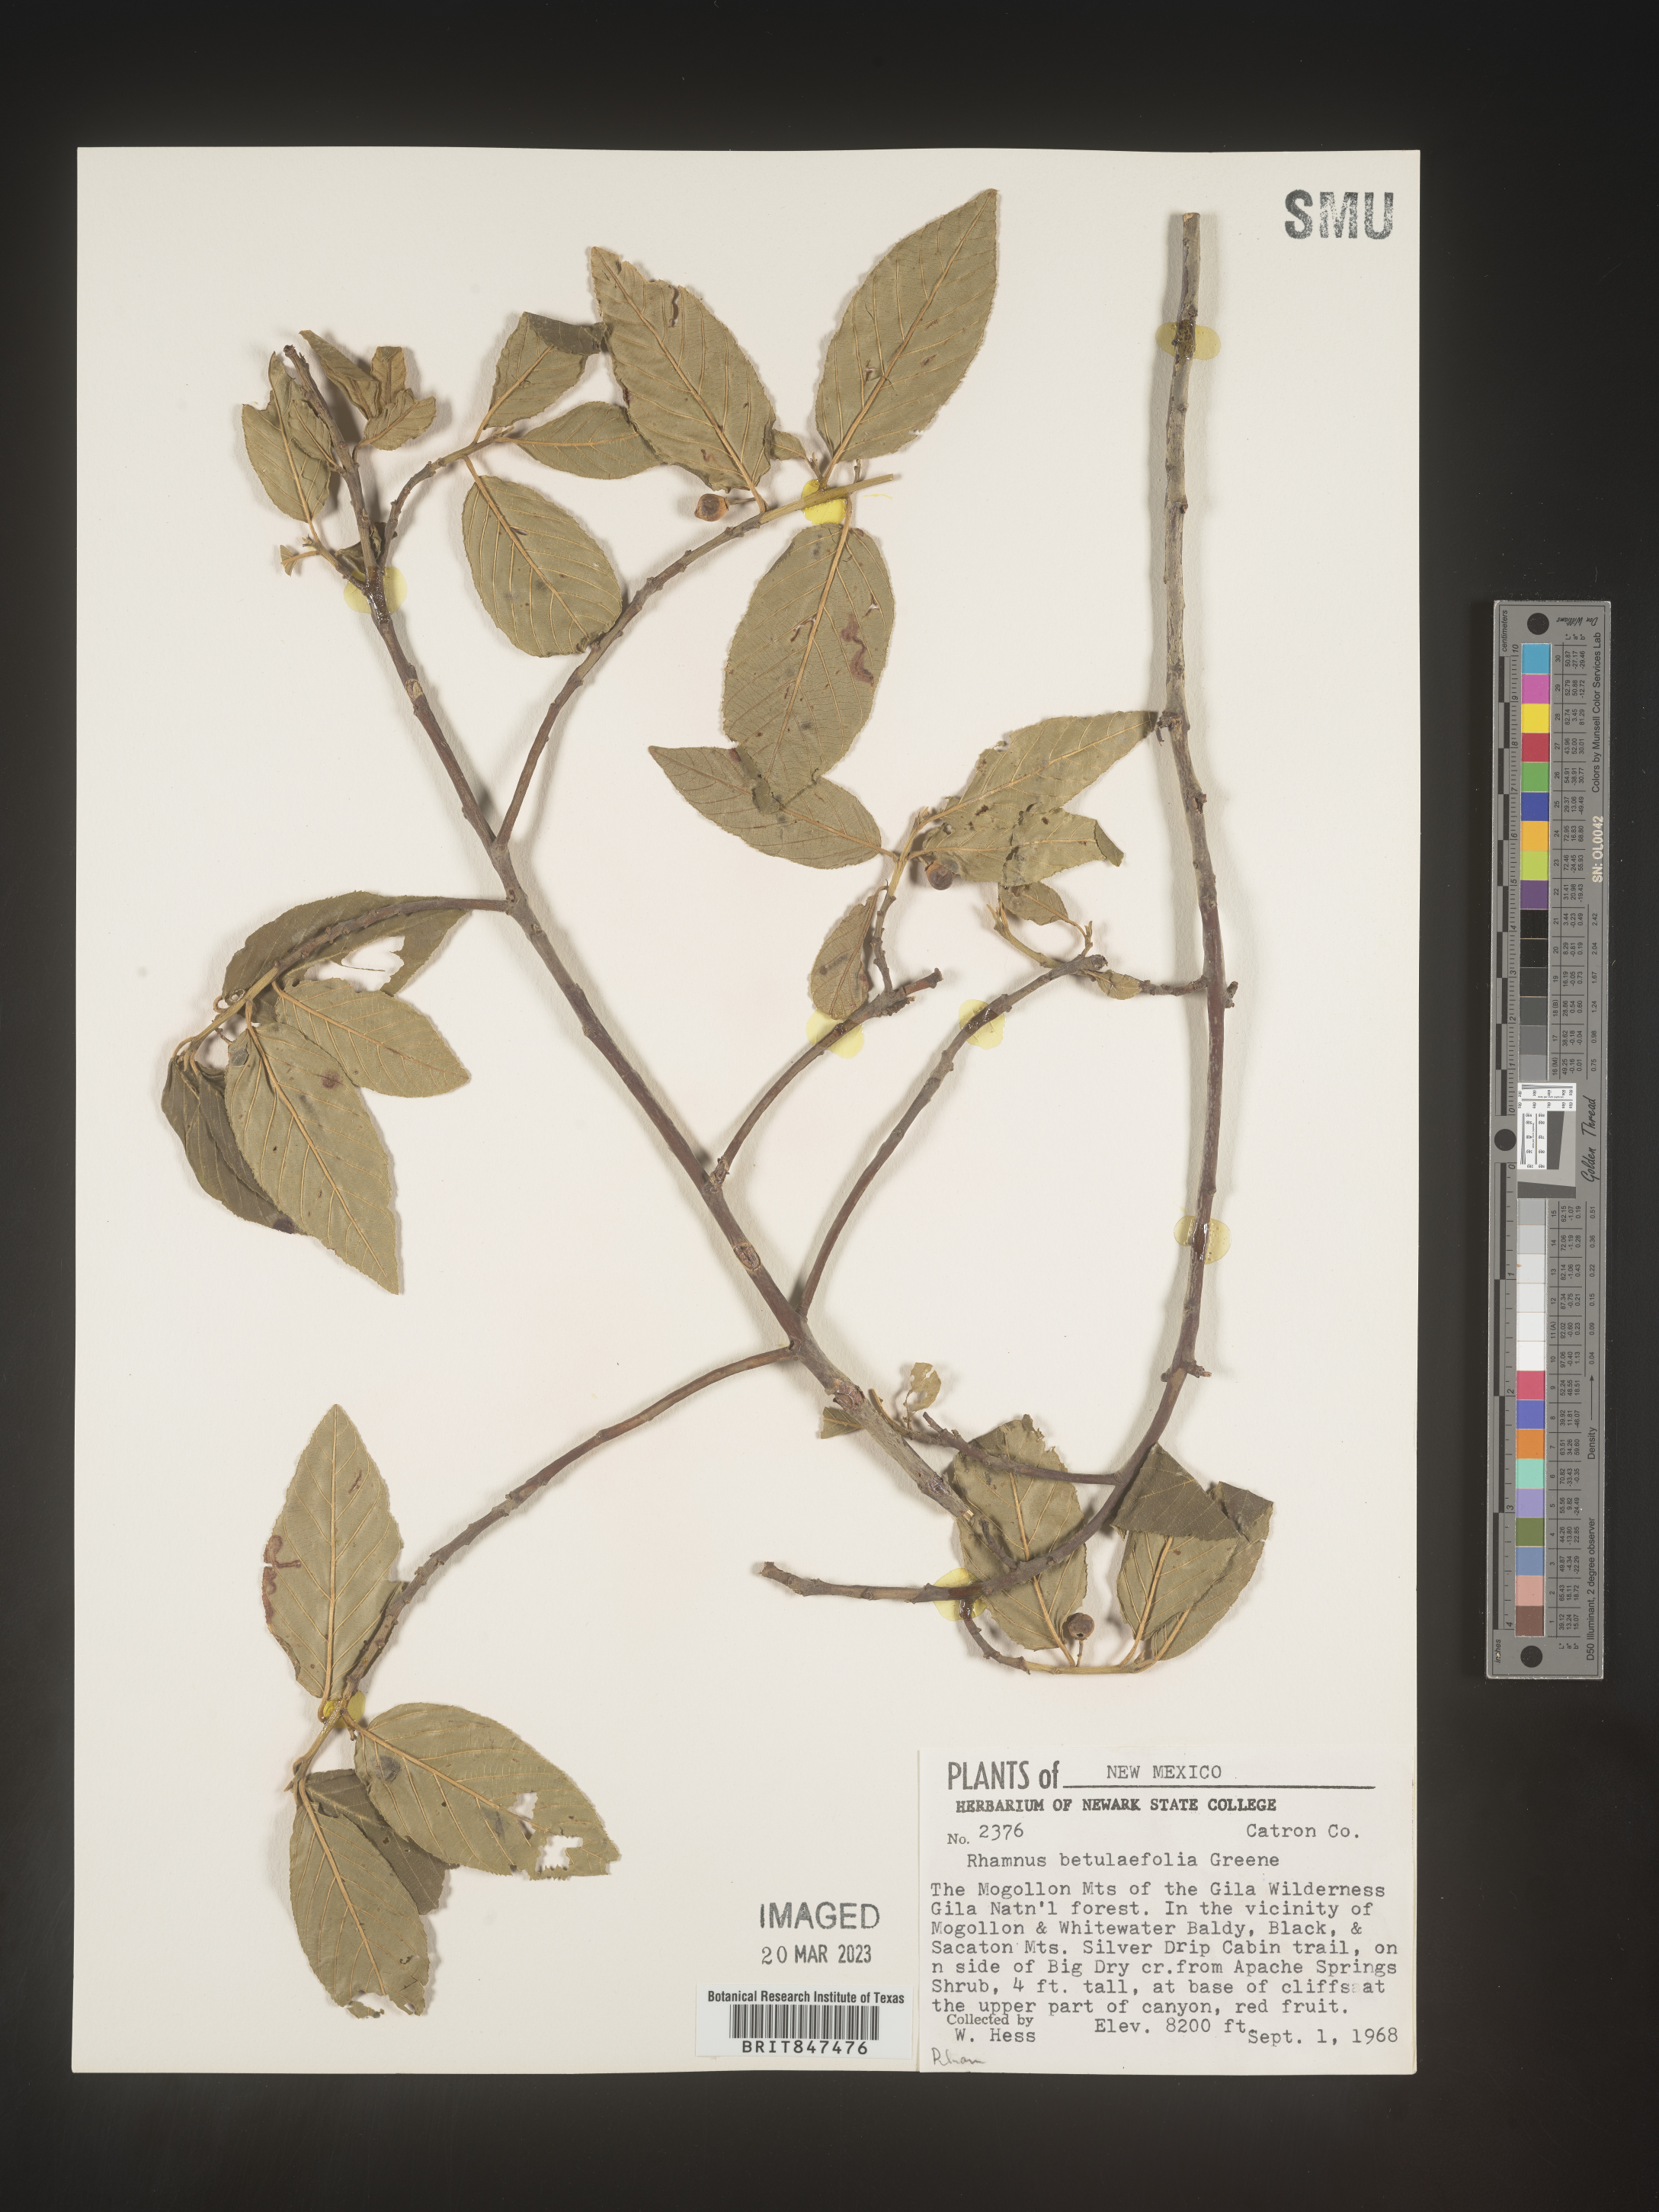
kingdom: Plantae
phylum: Tracheophyta
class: Magnoliopsida
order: Rosales
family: Rhamnaceae
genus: Frangula
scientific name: Frangula betulifolia
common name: Birch-leaf buckthorn
